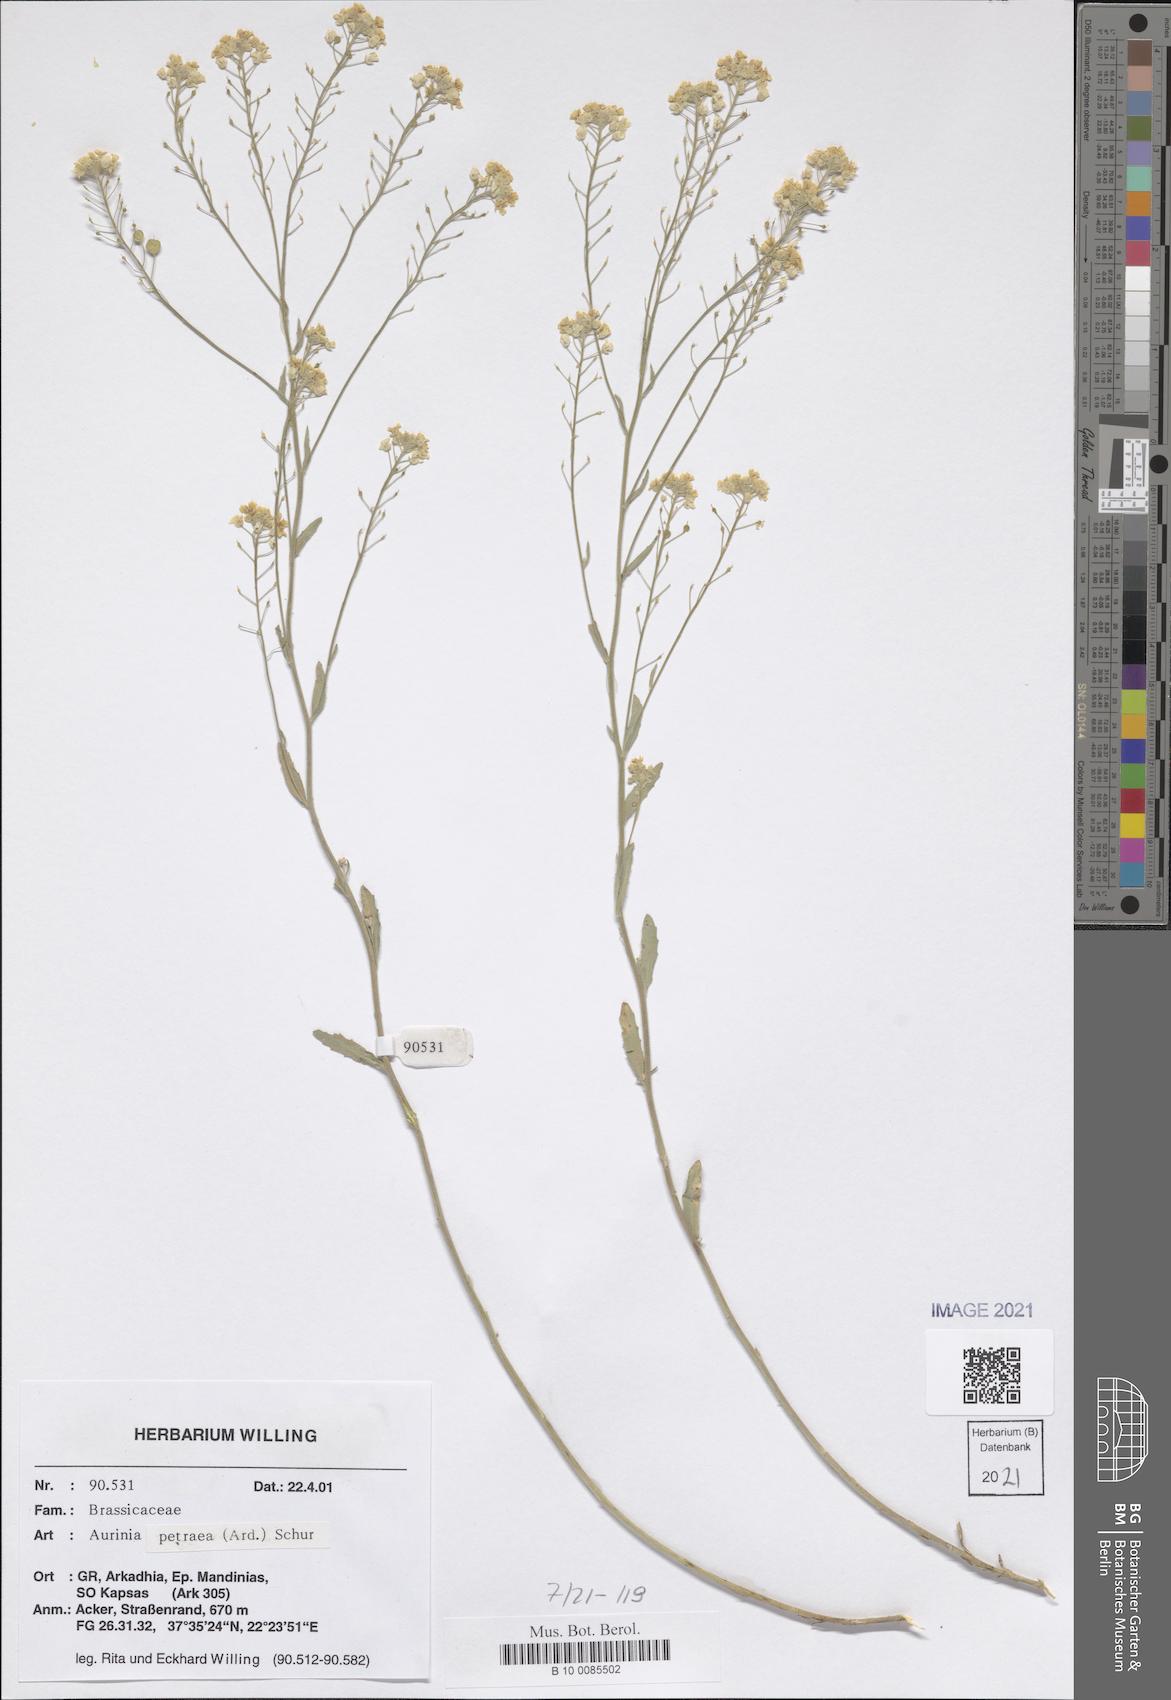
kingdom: Plantae
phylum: Tracheophyta
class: Magnoliopsida
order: Brassicales
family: Brassicaceae
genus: Aurinia
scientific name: Aurinia petraea
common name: Goldentuft
